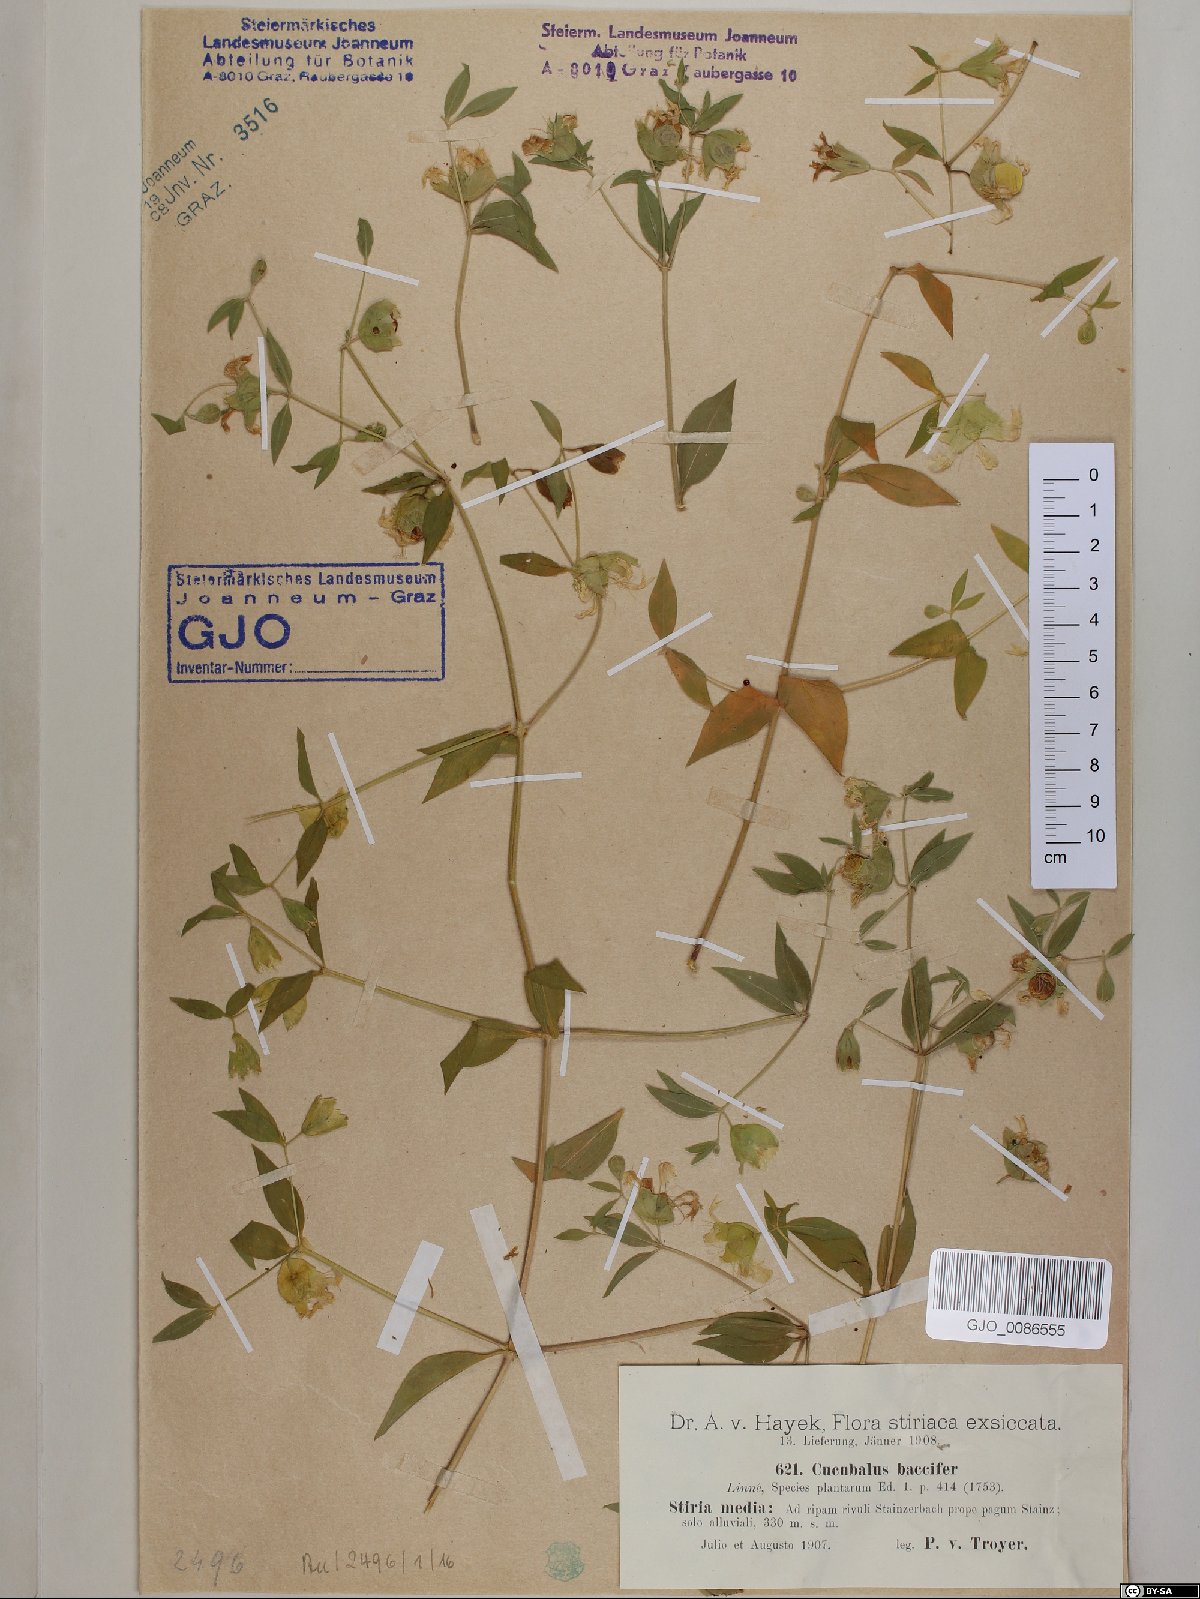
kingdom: Plantae
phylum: Tracheophyta
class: Magnoliopsida
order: Caryophyllales
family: Caryophyllaceae
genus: Silene
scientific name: Silene baccifera
